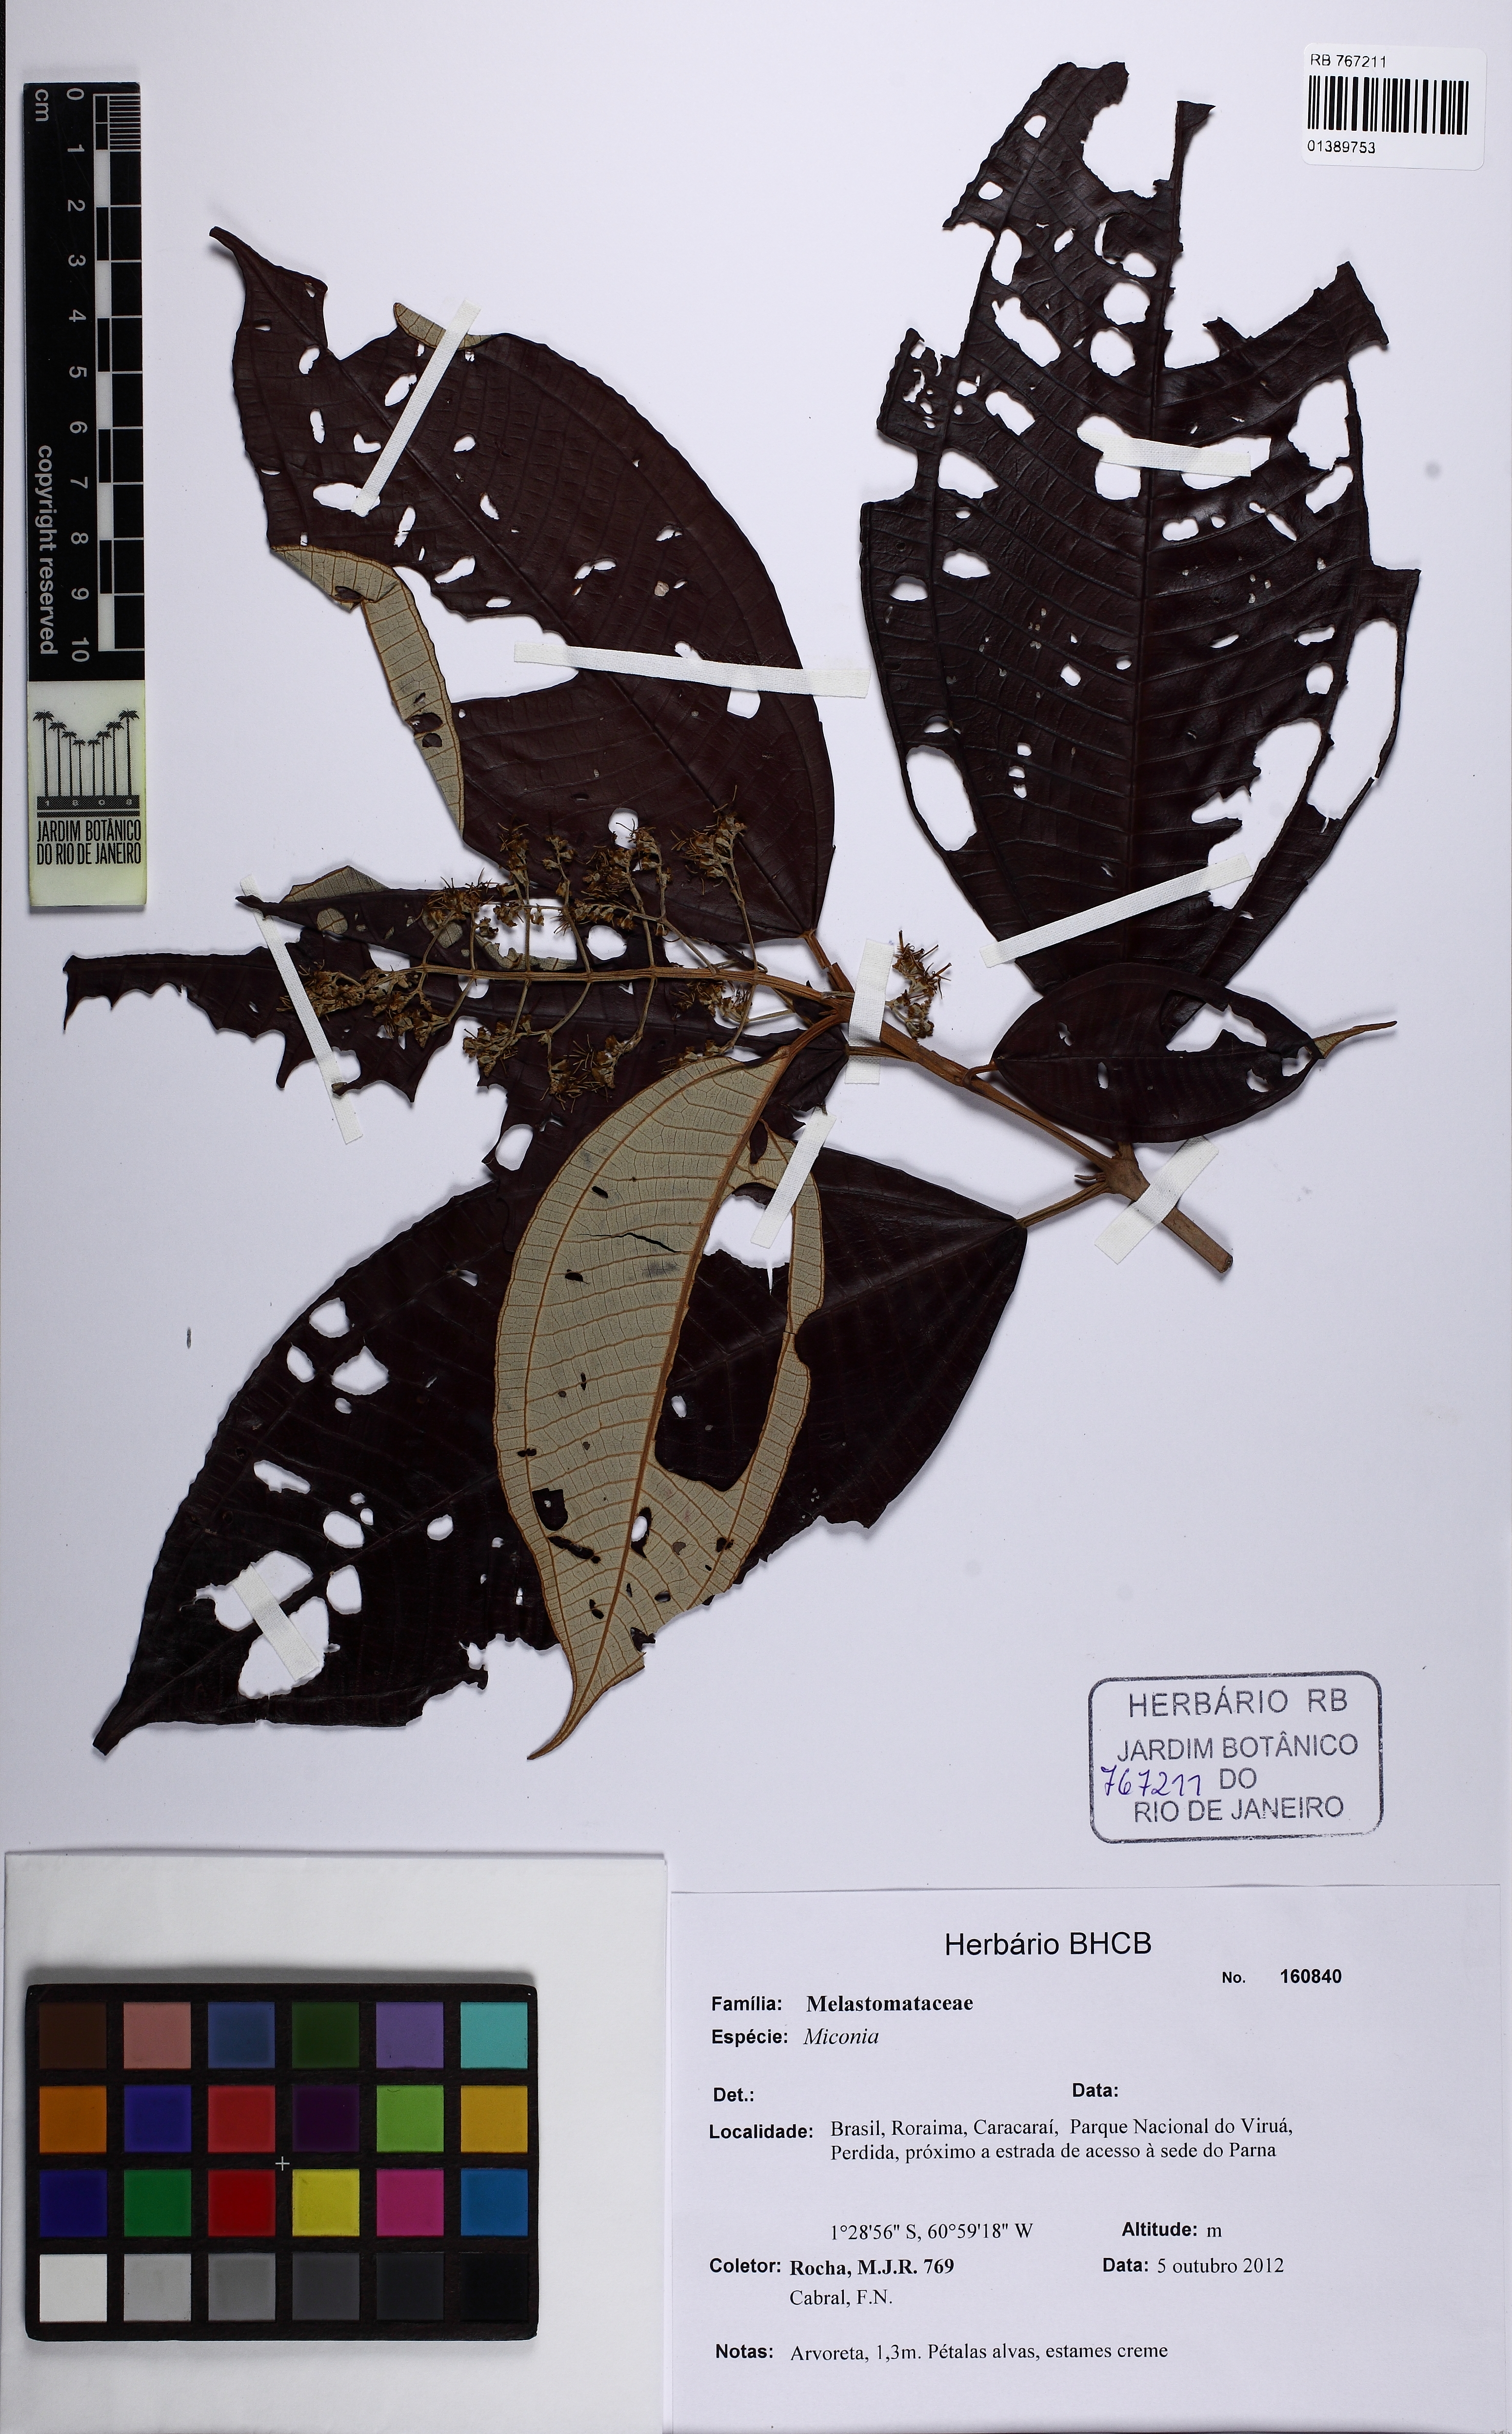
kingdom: Plantae
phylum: Tracheophyta
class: Magnoliopsida
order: Myrtales
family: Melastomataceae
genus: Miconia
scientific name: Miconia
